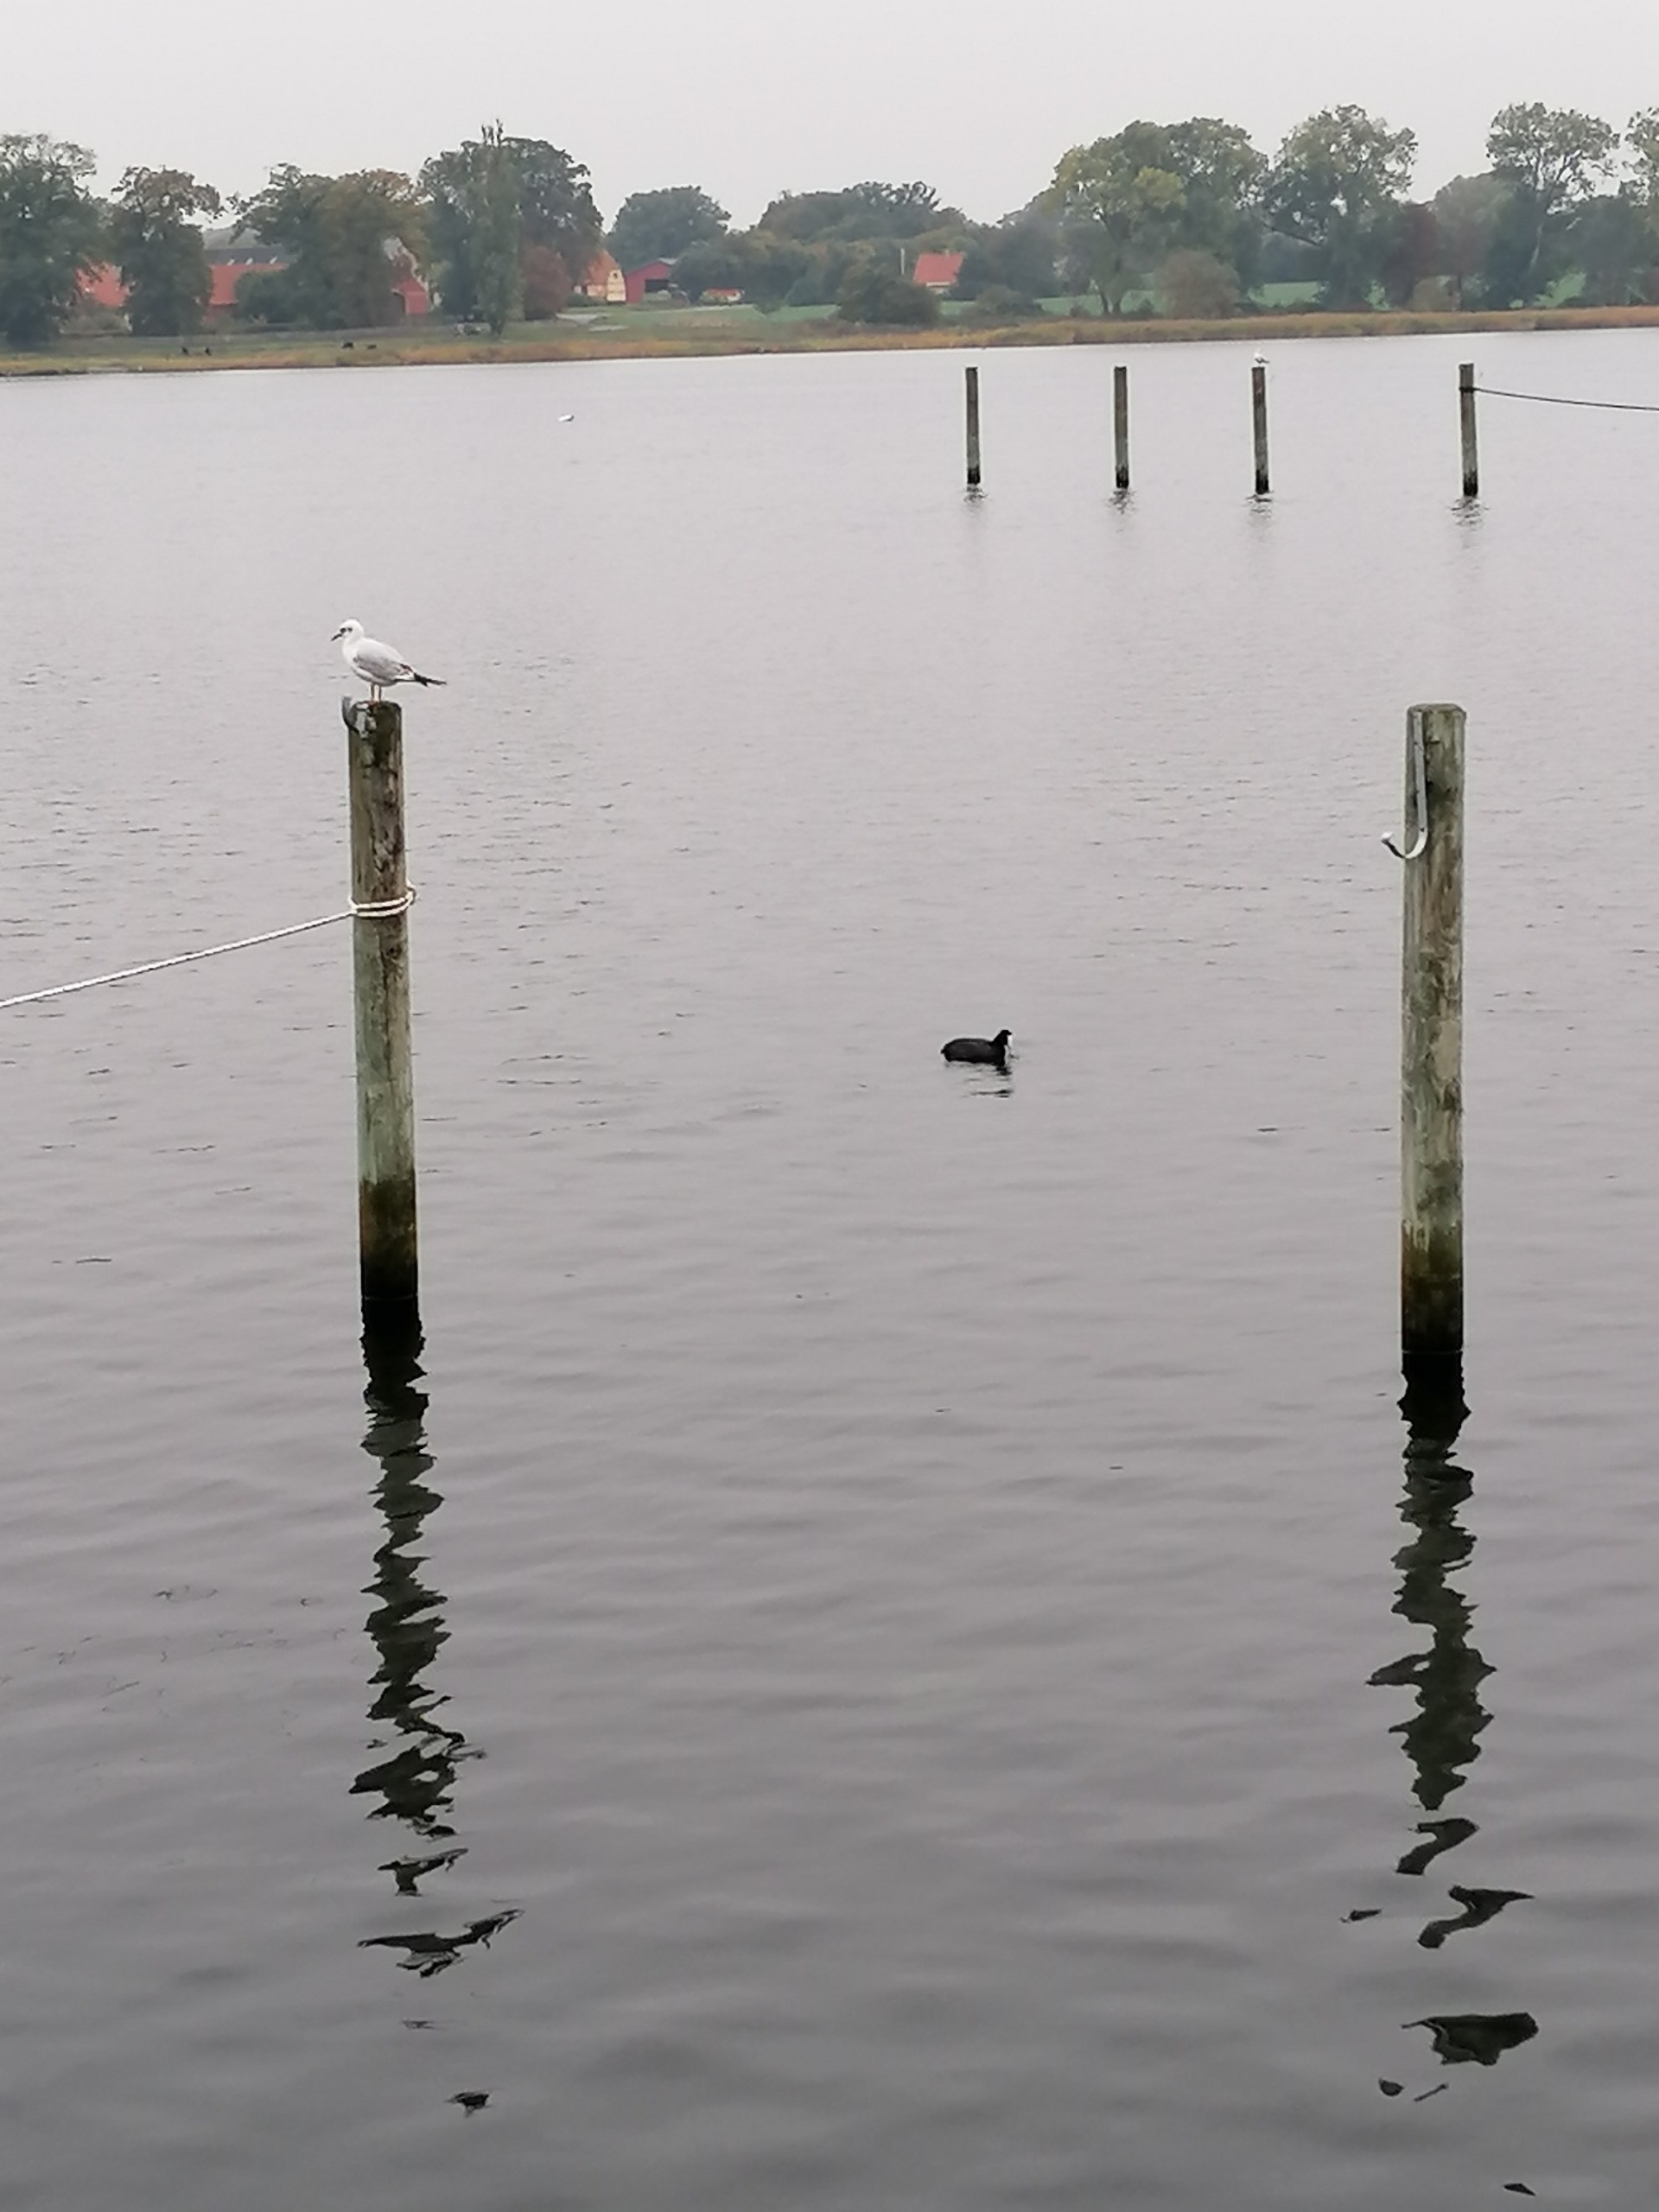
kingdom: Animalia
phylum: Chordata
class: Aves
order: Charadriiformes
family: Laridae
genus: Chroicocephalus
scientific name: Chroicocephalus ridibundus
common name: Hættemåge
